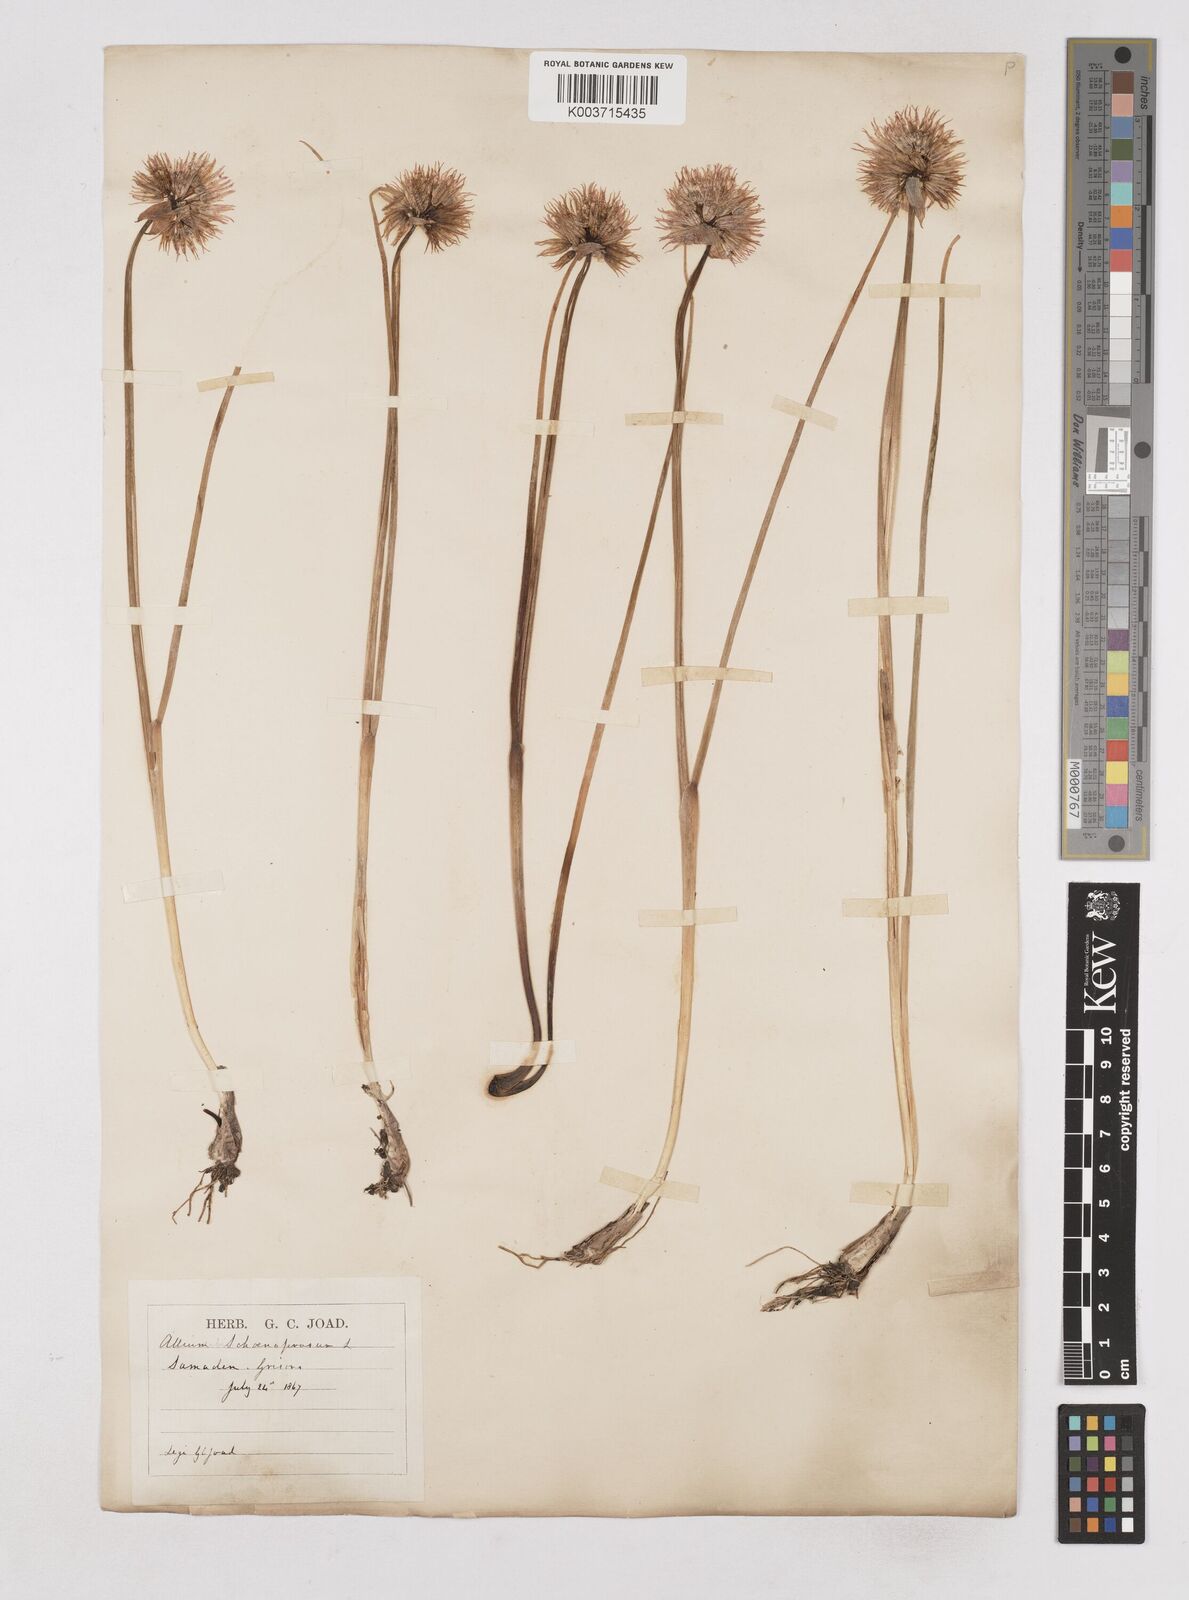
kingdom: Plantae
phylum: Tracheophyta
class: Liliopsida
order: Asparagales
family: Amaryllidaceae
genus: Allium
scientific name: Allium schoenoprasum
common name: Chives
